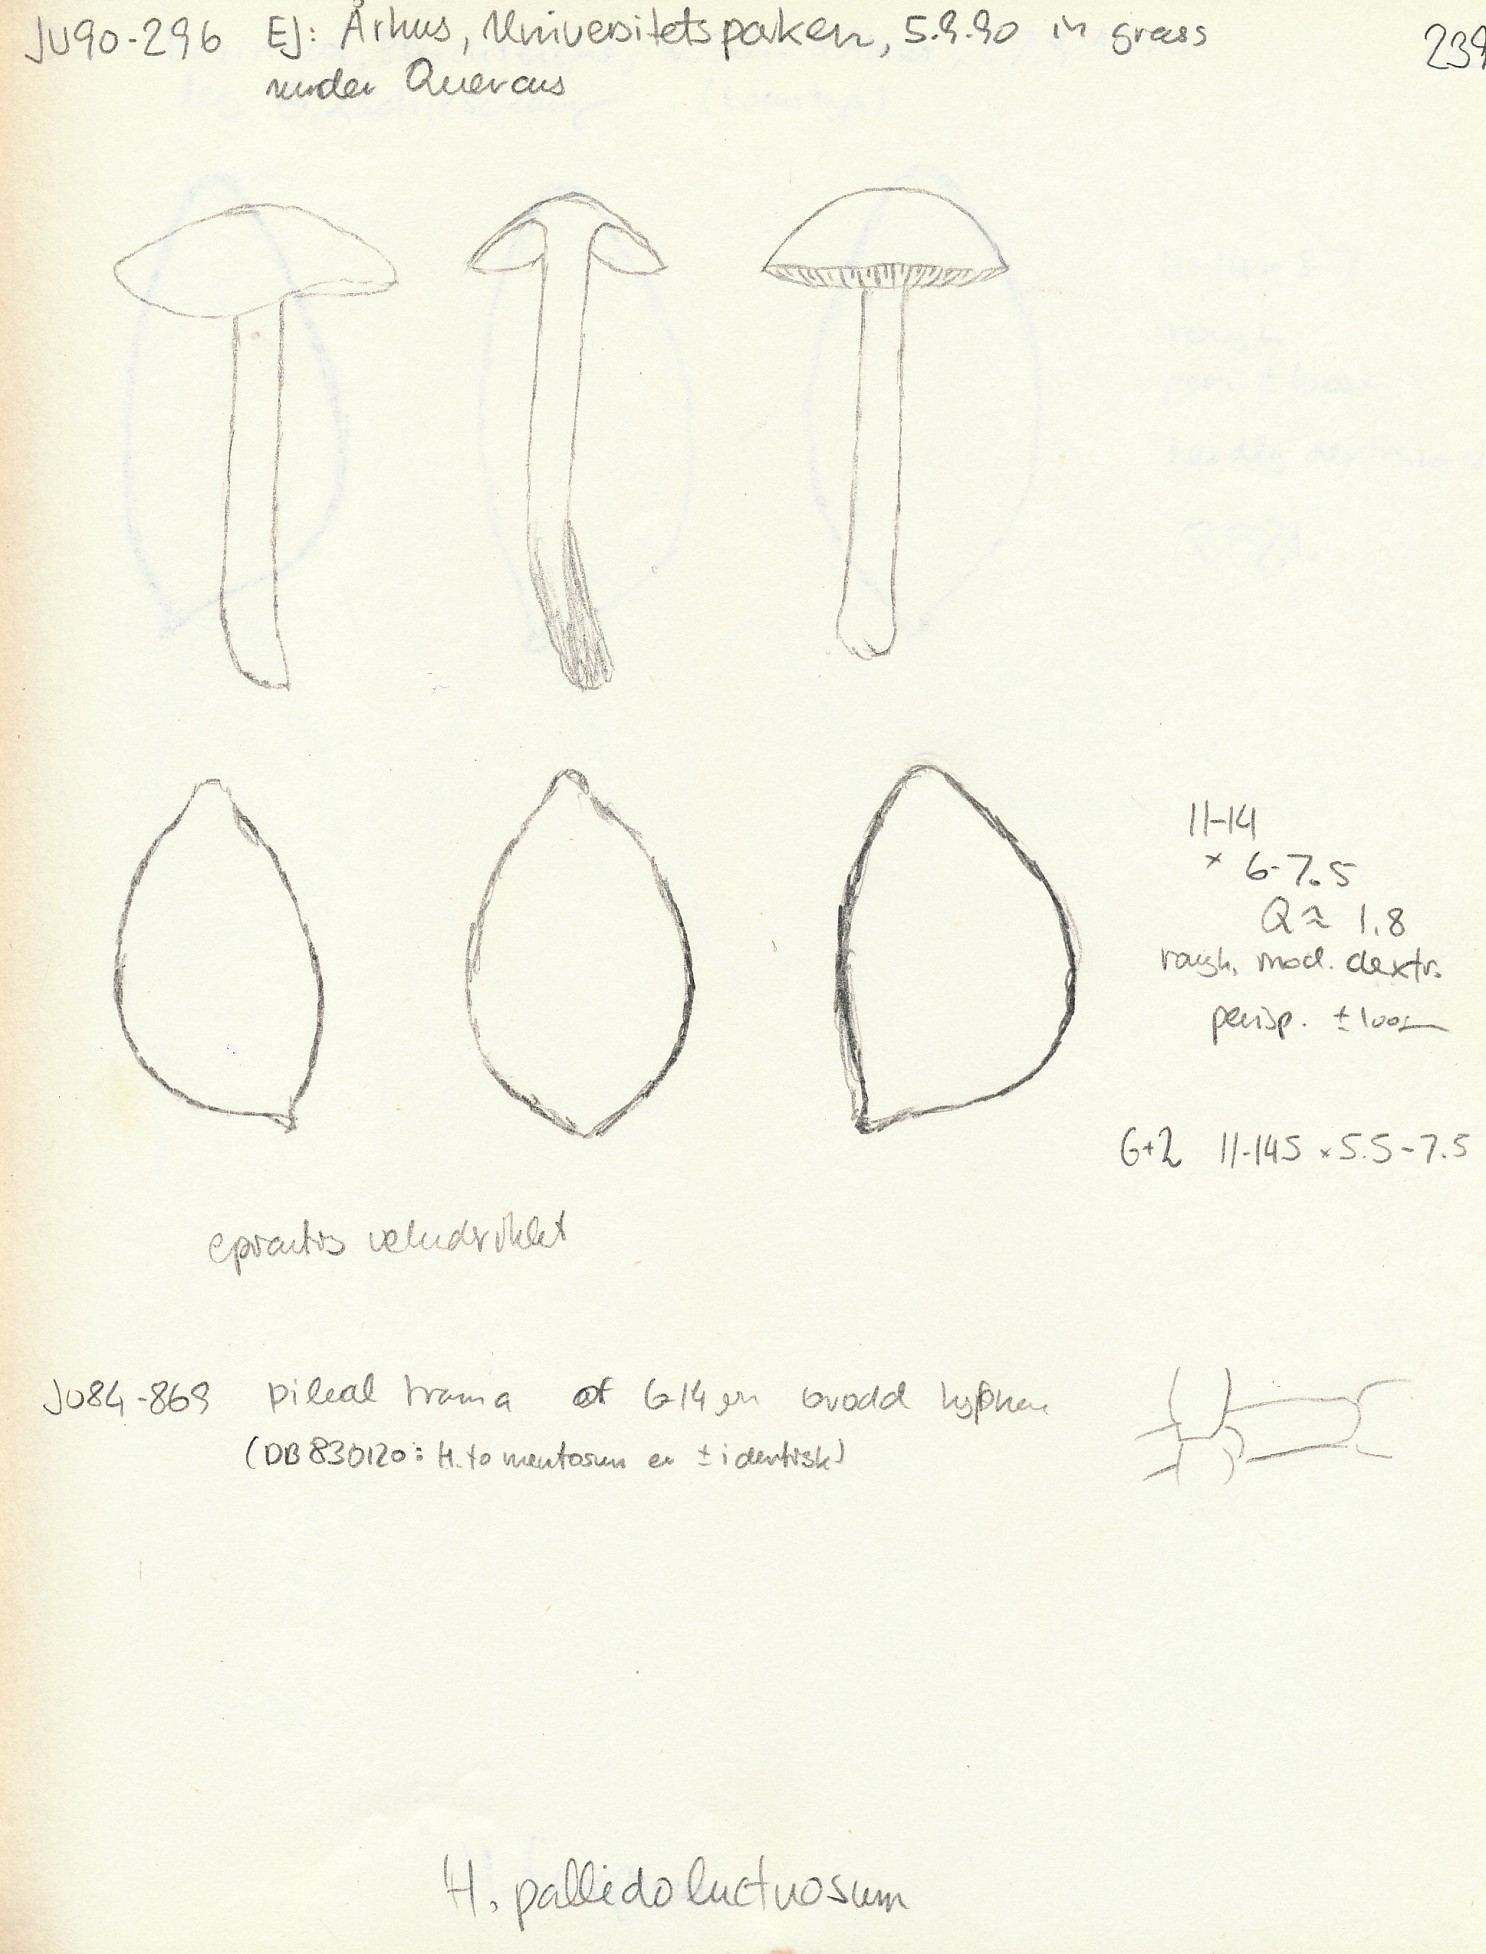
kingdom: Fungi
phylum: Basidiomycota
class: Agaricomycetes
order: Agaricales
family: Hymenogastraceae
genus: Hebeloma
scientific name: Hebeloma sacchariolens
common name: sødtduftende tåreblad
